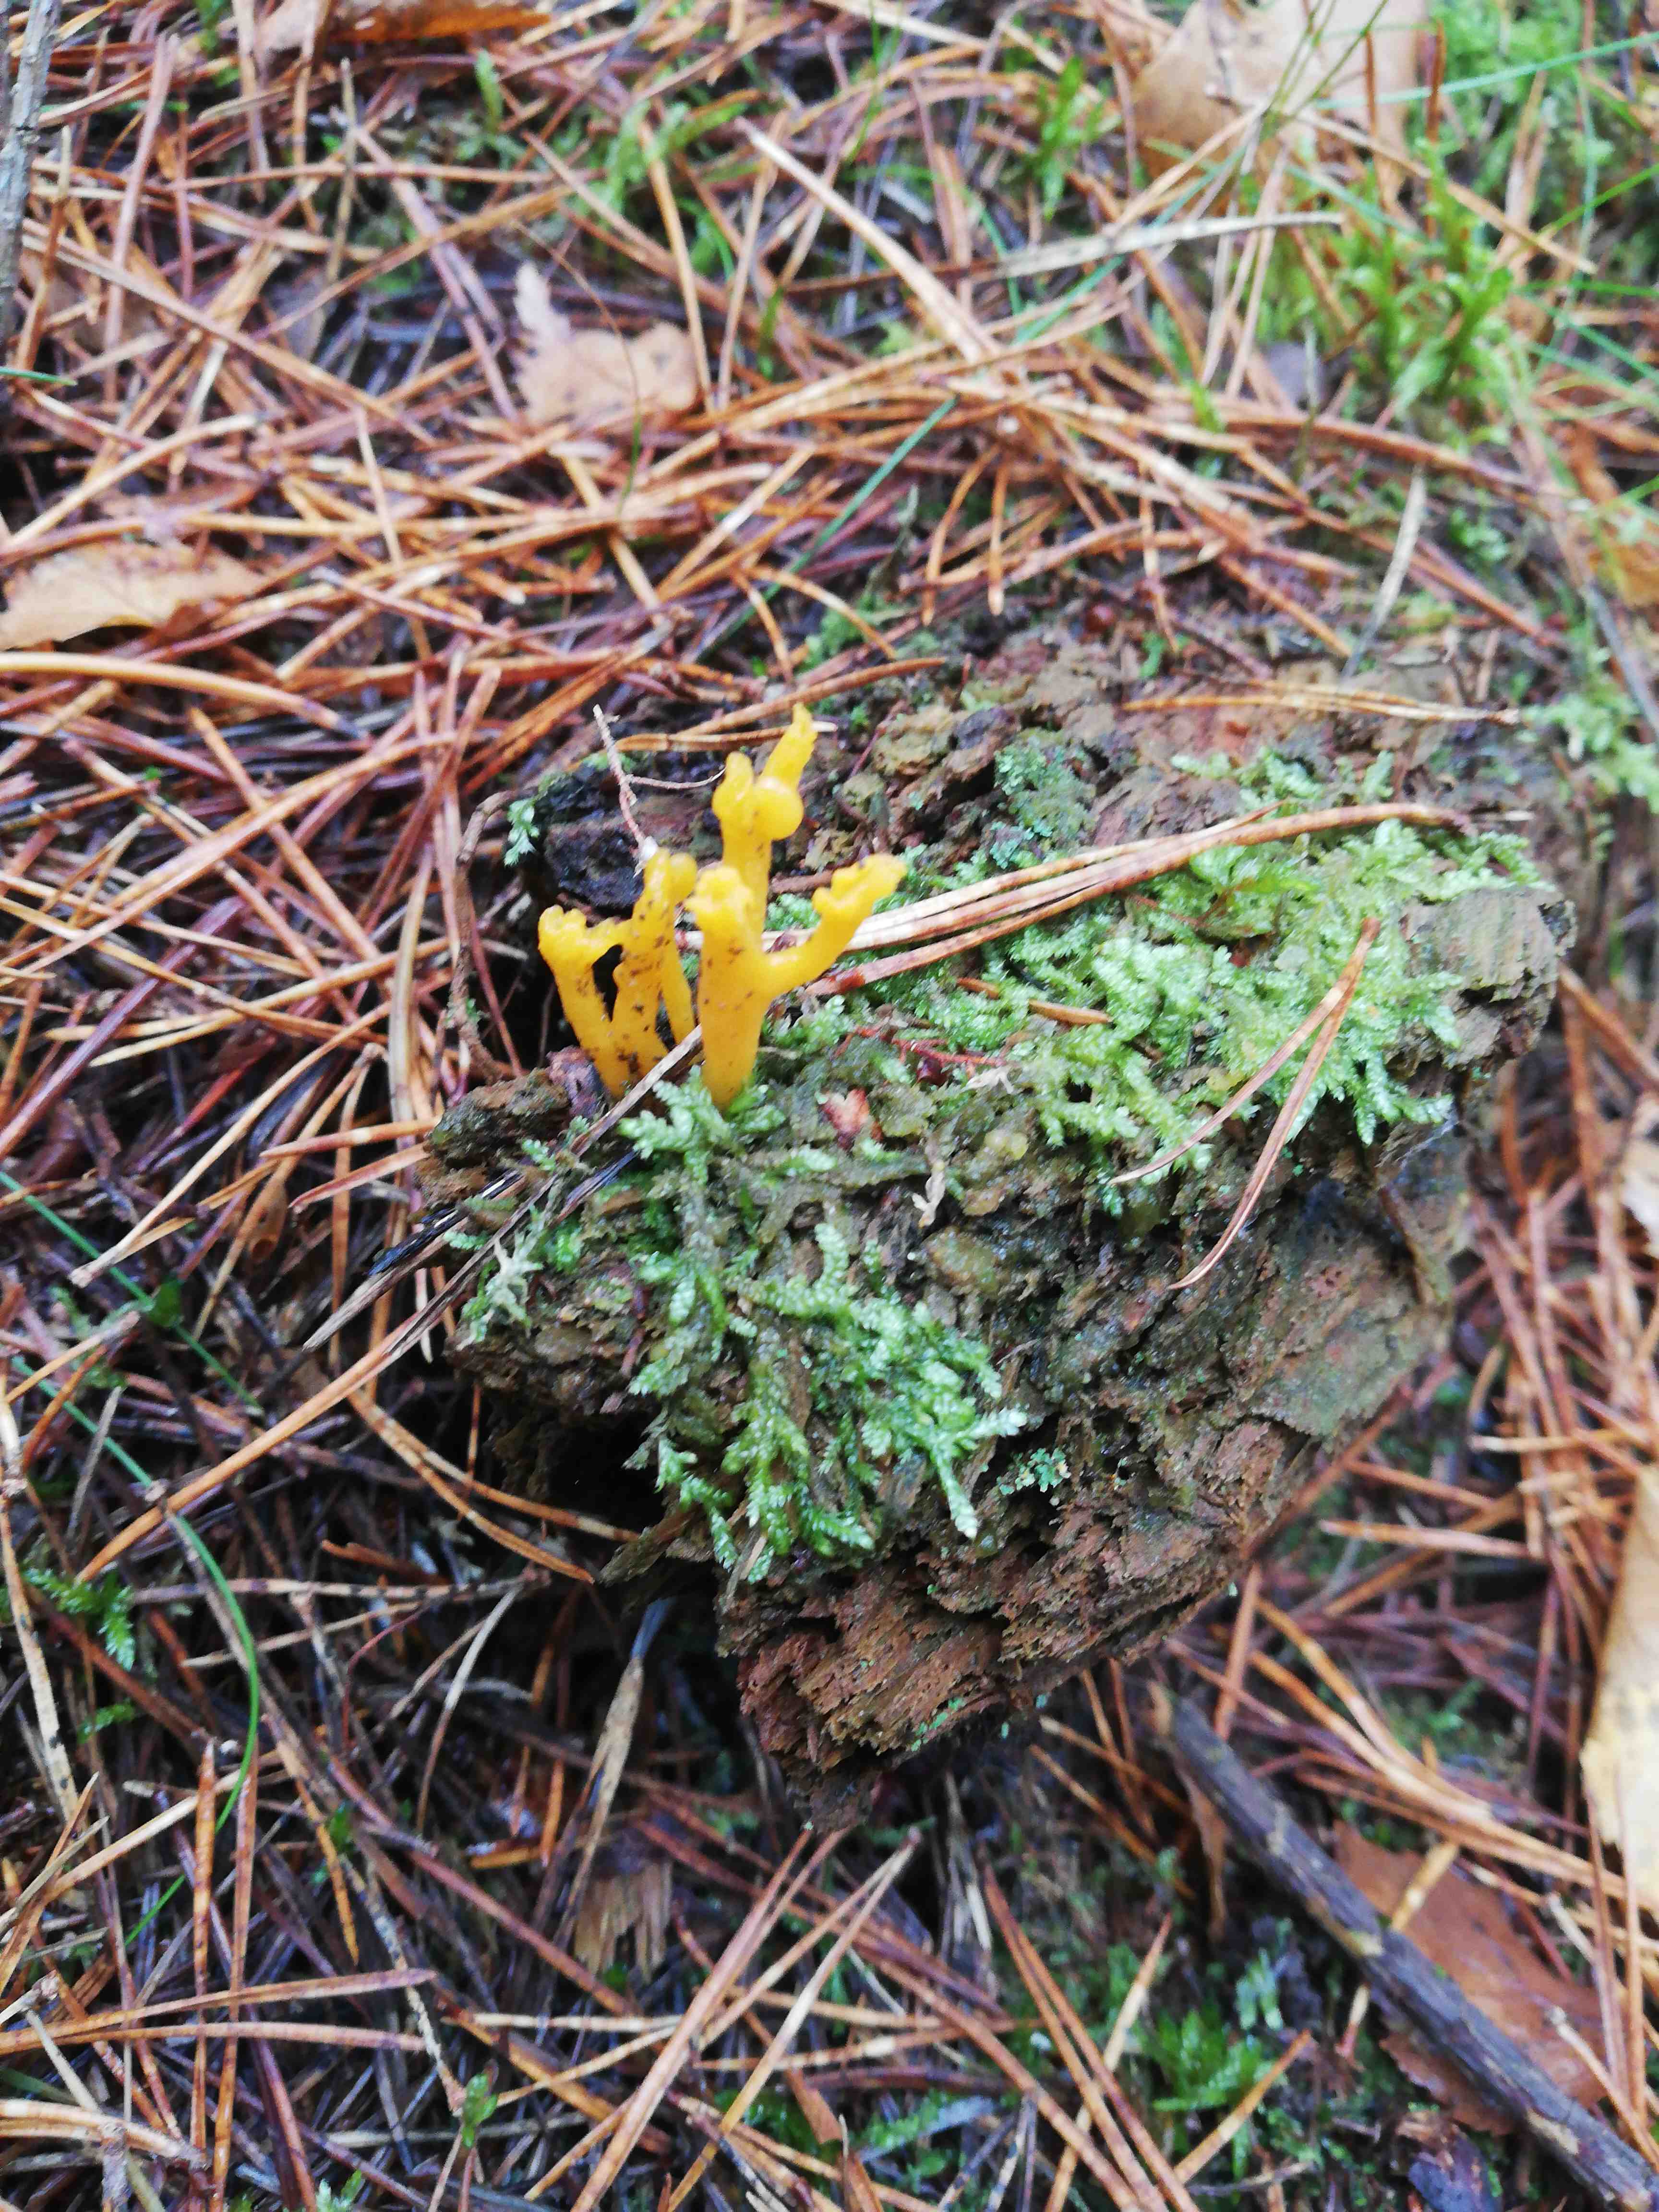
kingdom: Fungi
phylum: Basidiomycota
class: Dacrymycetes
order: Dacrymycetales
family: Dacrymycetaceae
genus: Calocera
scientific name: Calocera viscosa
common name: almindelig guldgaffel
